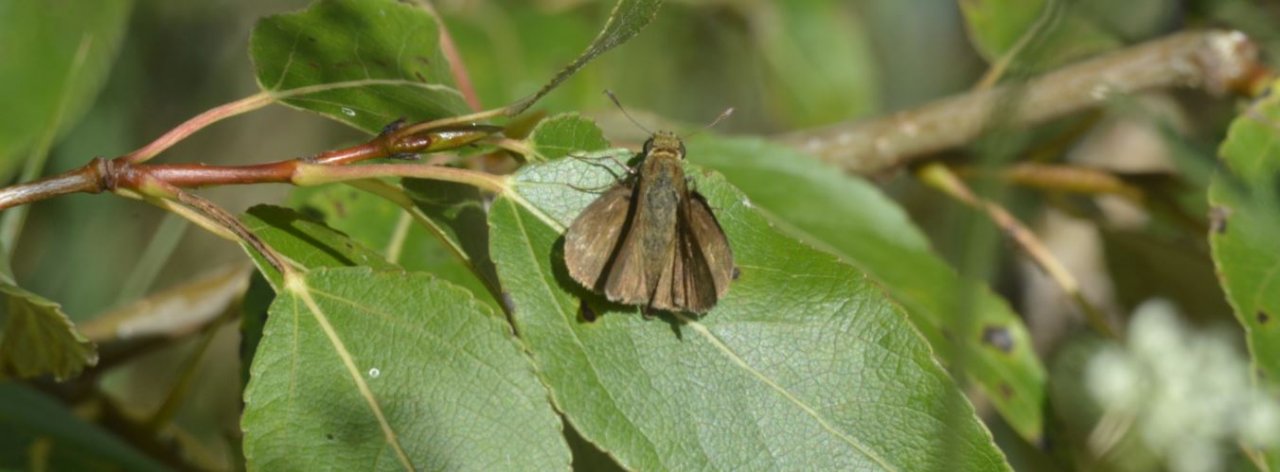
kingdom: Animalia
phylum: Arthropoda
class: Insecta
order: Lepidoptera
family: Hesperiidae
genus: Euphyes
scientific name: Euphyes vestris
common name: Dun Skipper
